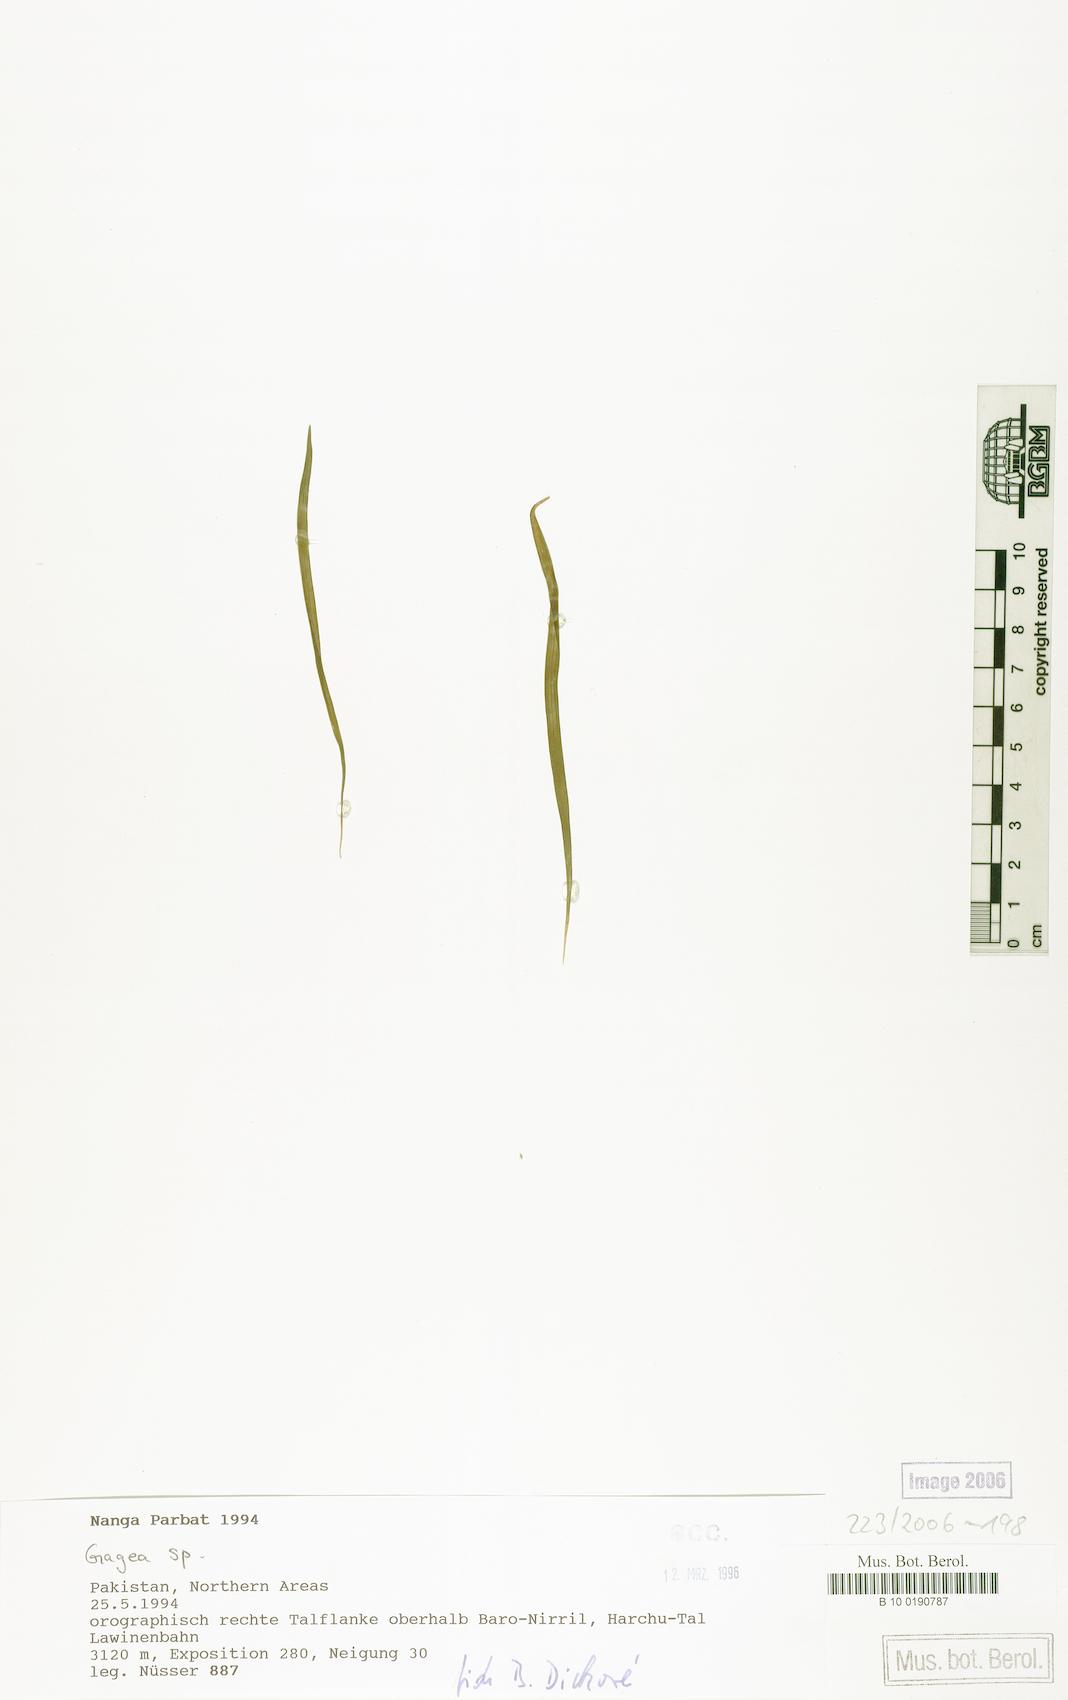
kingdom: Plantae
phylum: Tracheophyta
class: Liliopsida
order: Liliales
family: Liliaceae
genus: Gagea
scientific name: Gagea
